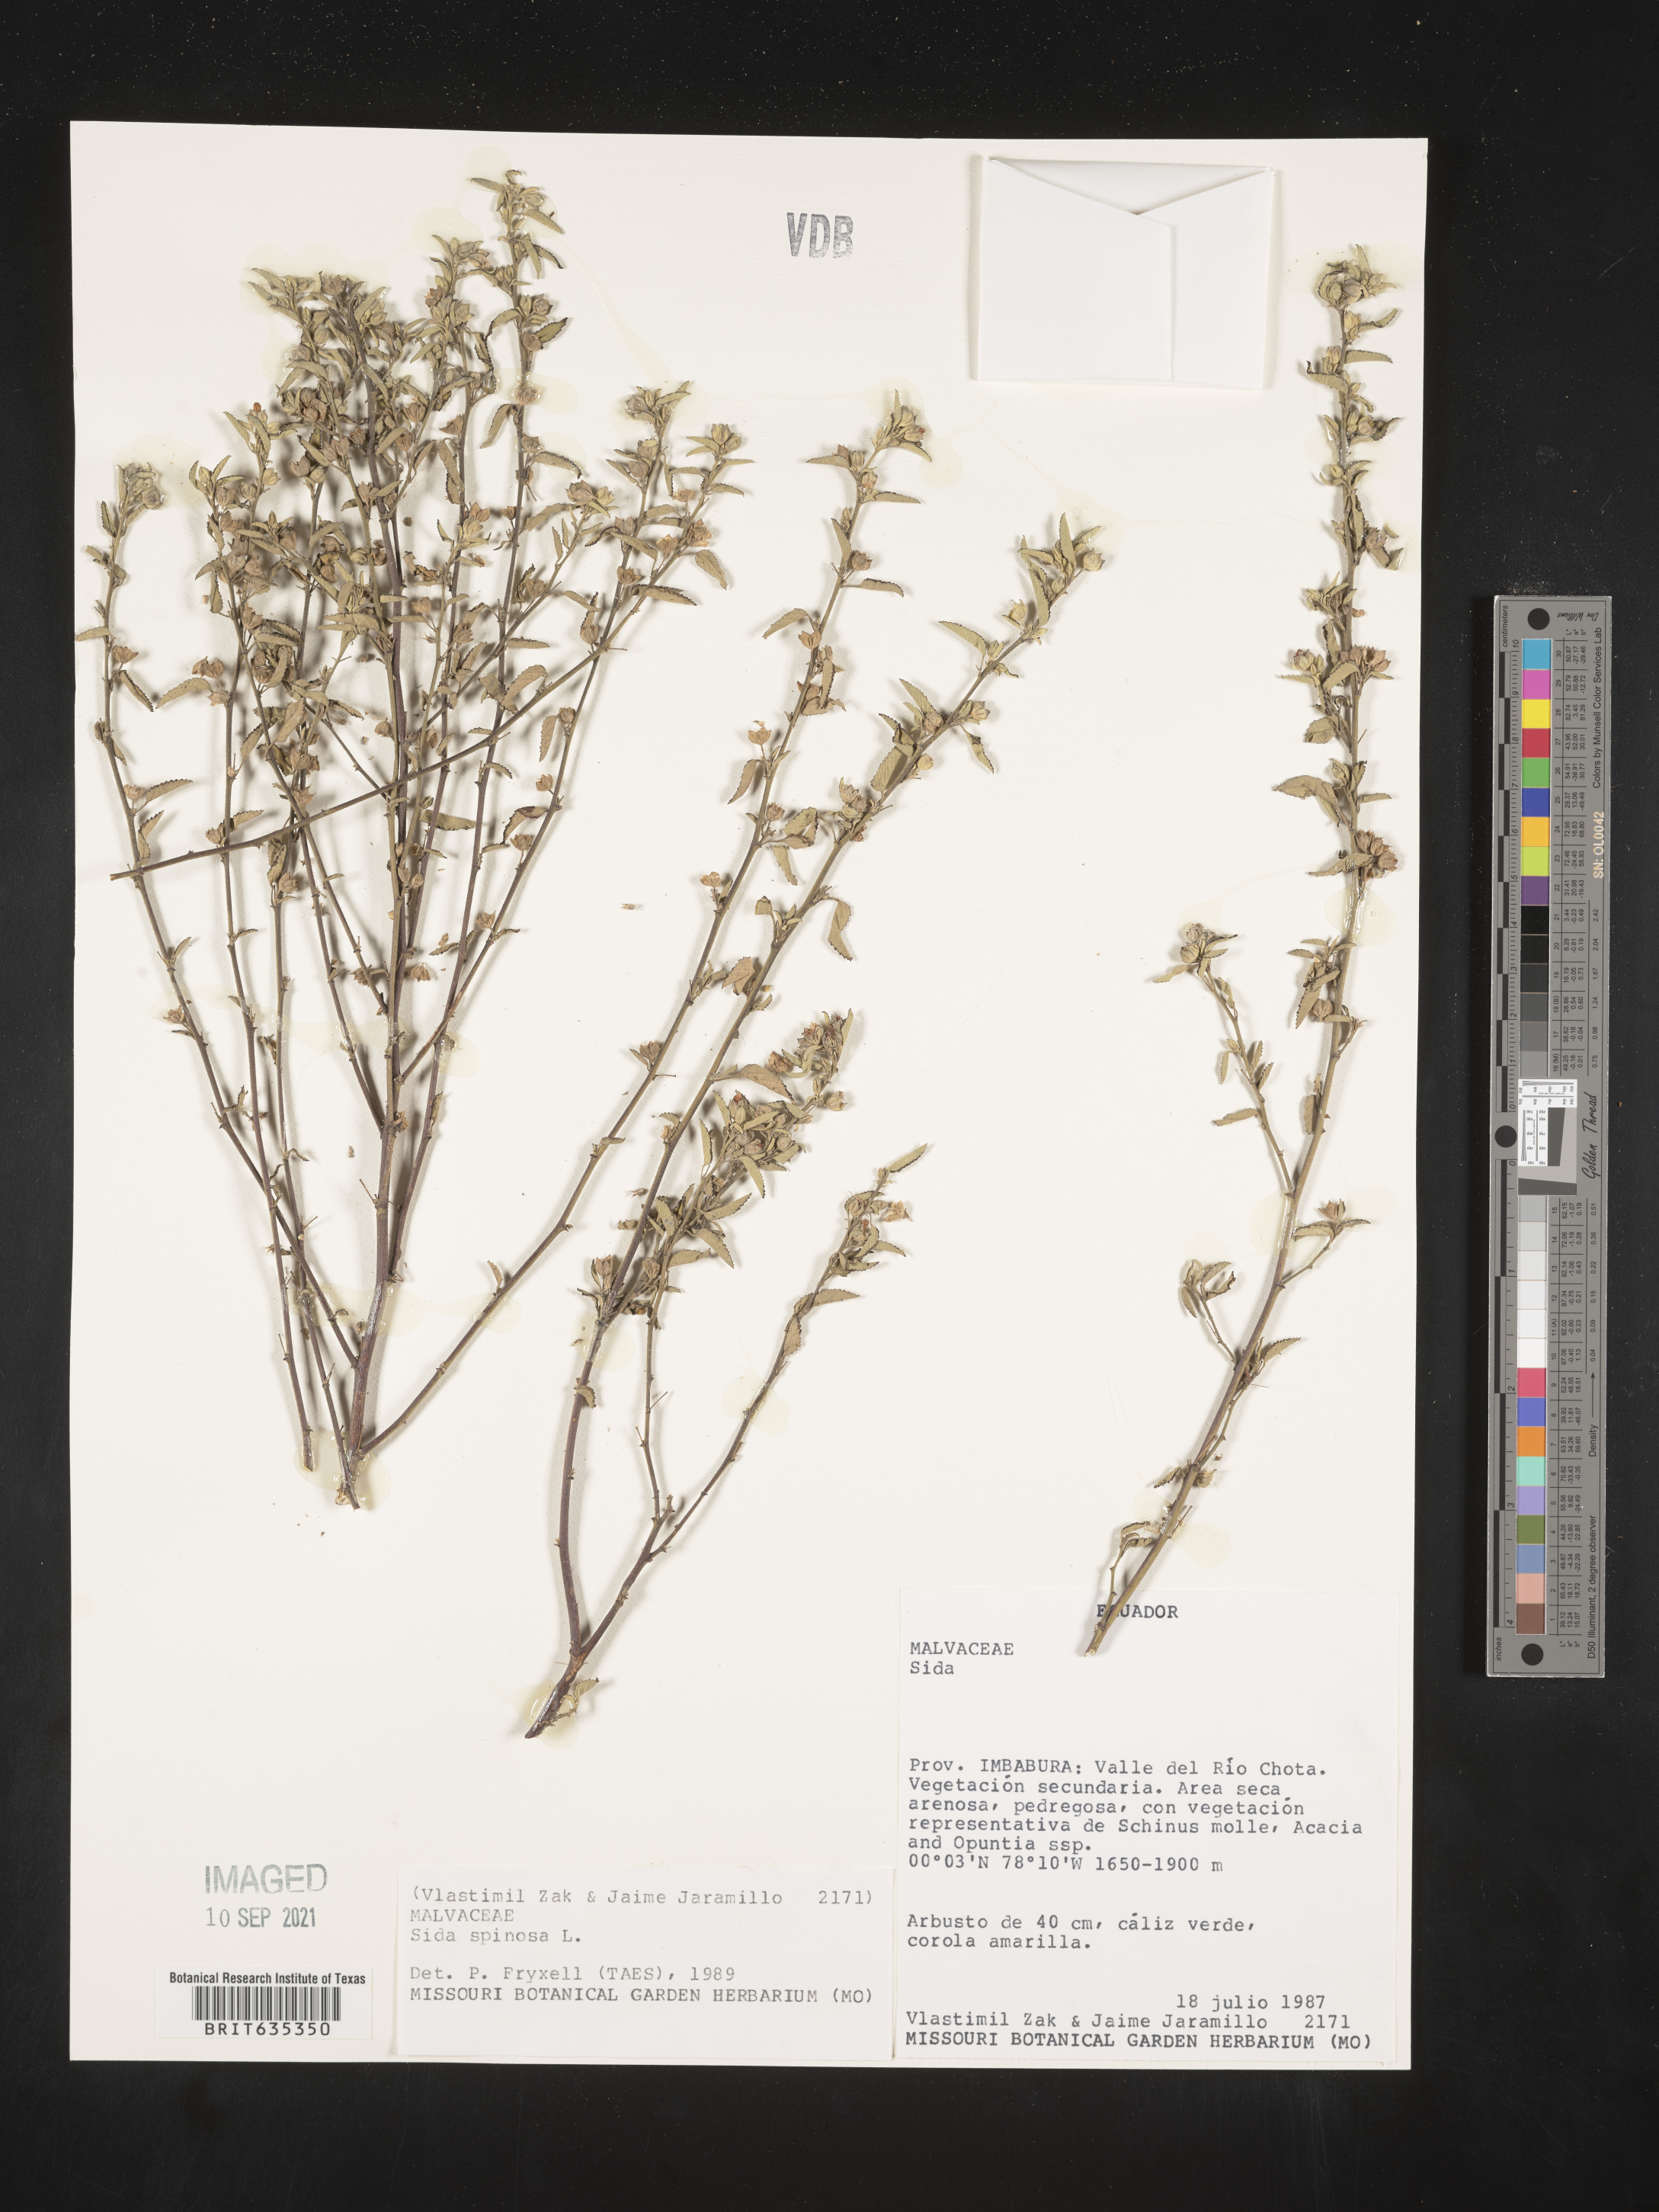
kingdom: Plantae
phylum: Tracheophyta
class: Magnoliopsida
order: Malvales
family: Malvaceae
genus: Sida
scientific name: Sida
